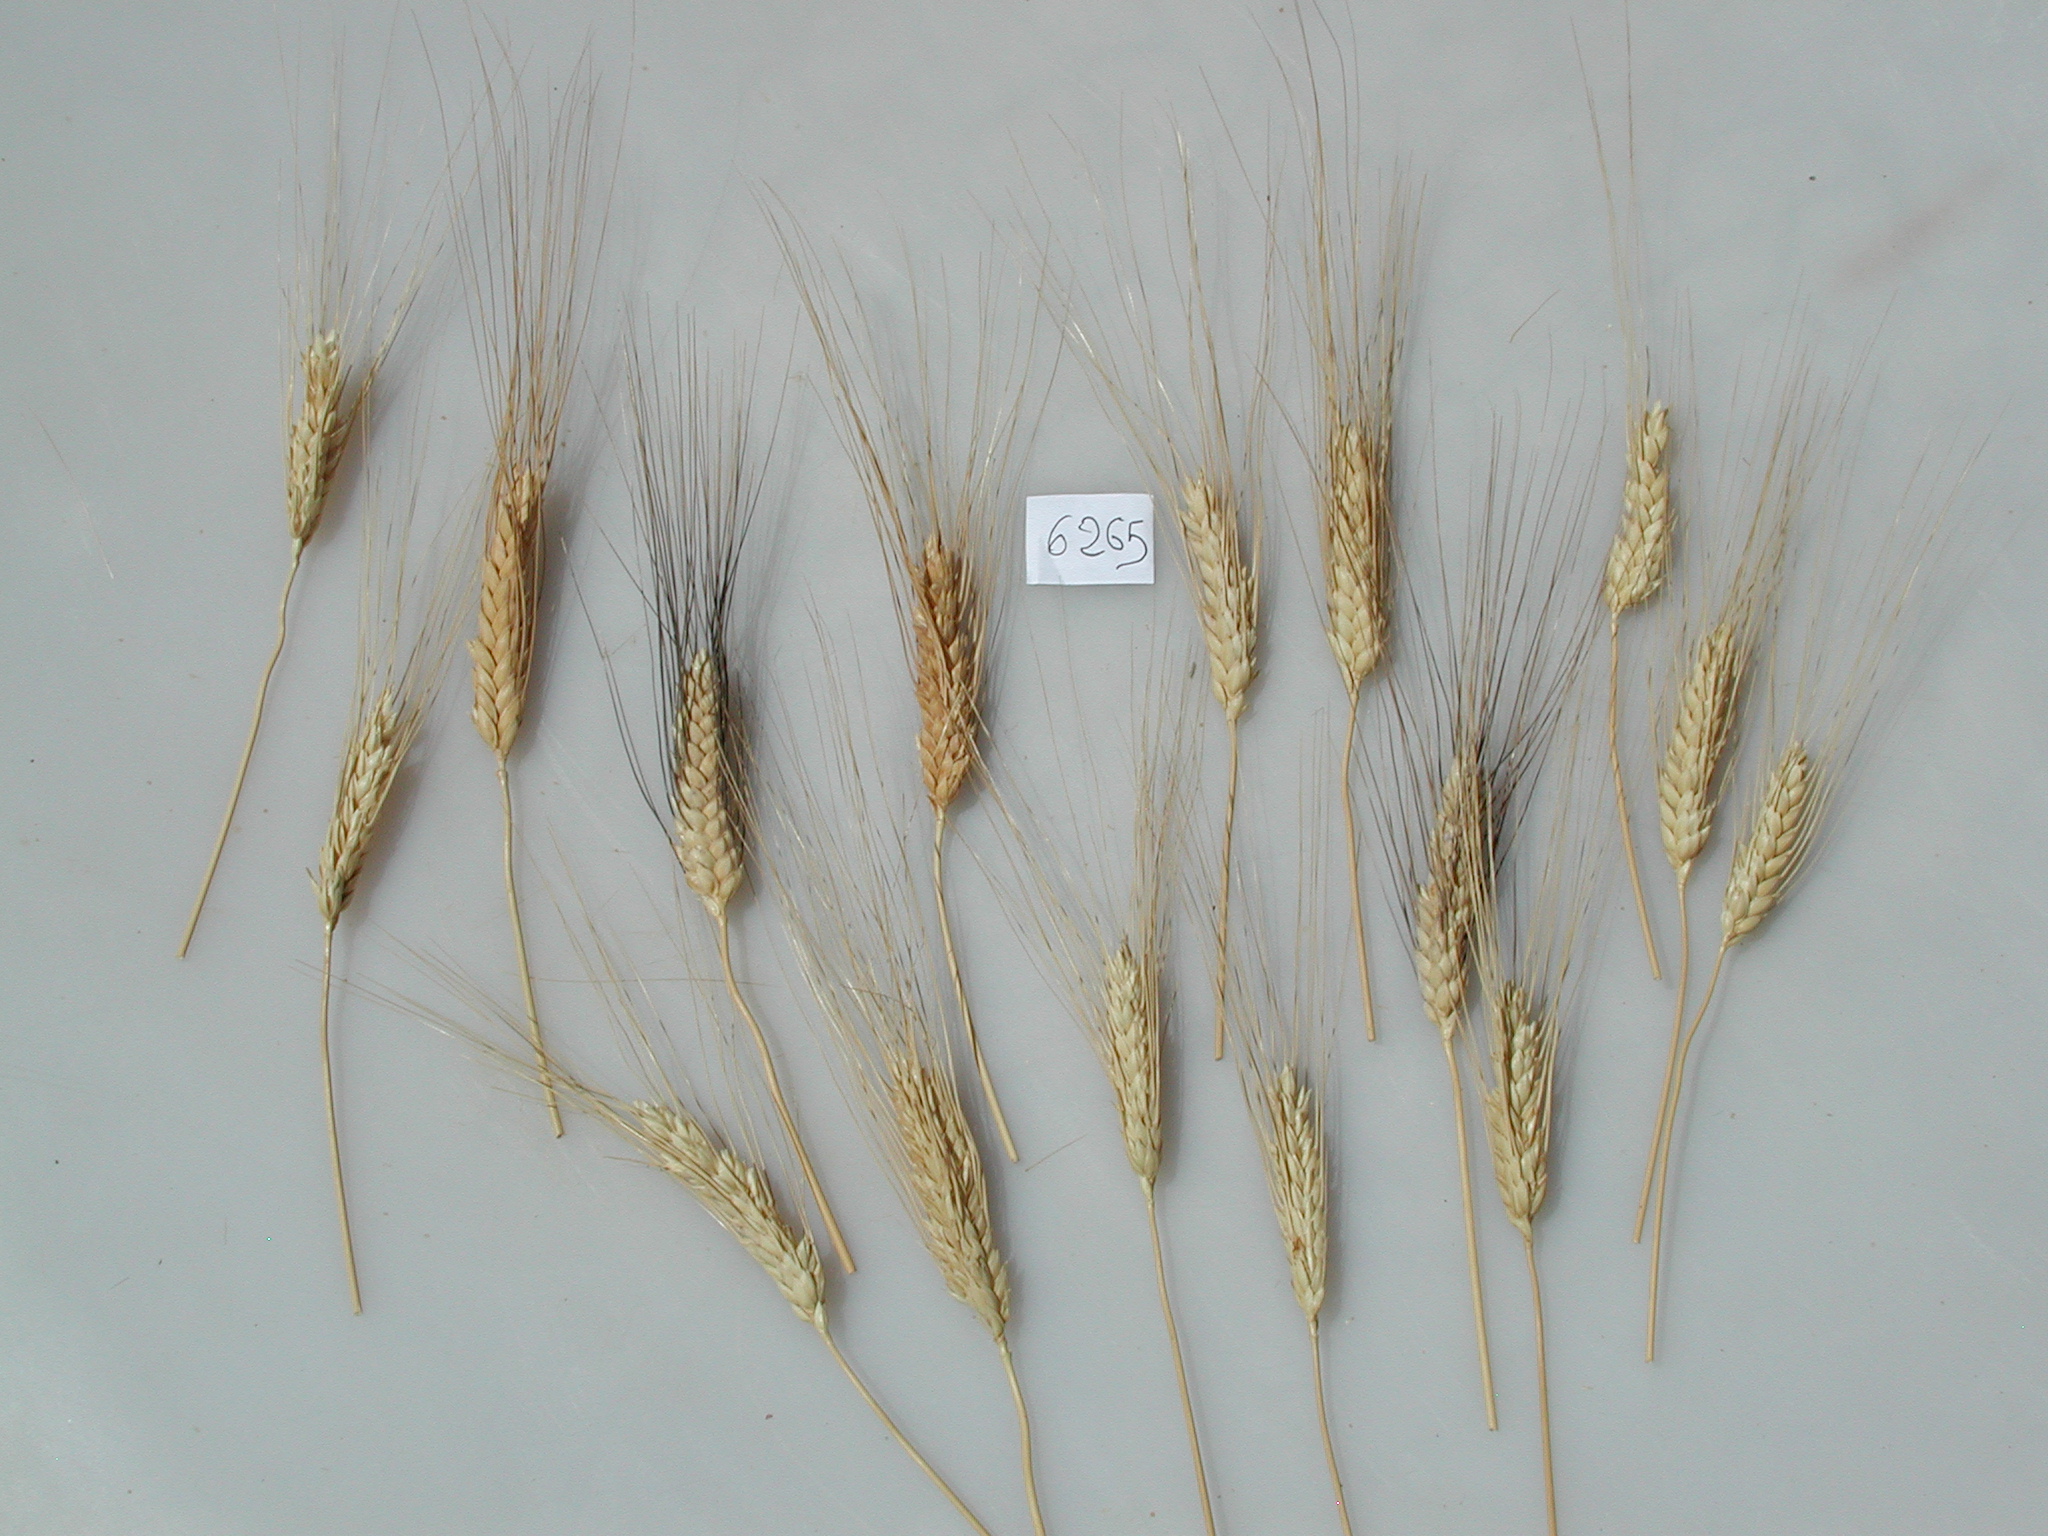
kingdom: Plantae
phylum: Tracheophyta
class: Liliopsida
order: Poales
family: Poaceae
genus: Triticum
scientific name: Triticum turgidum
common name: Wheat
